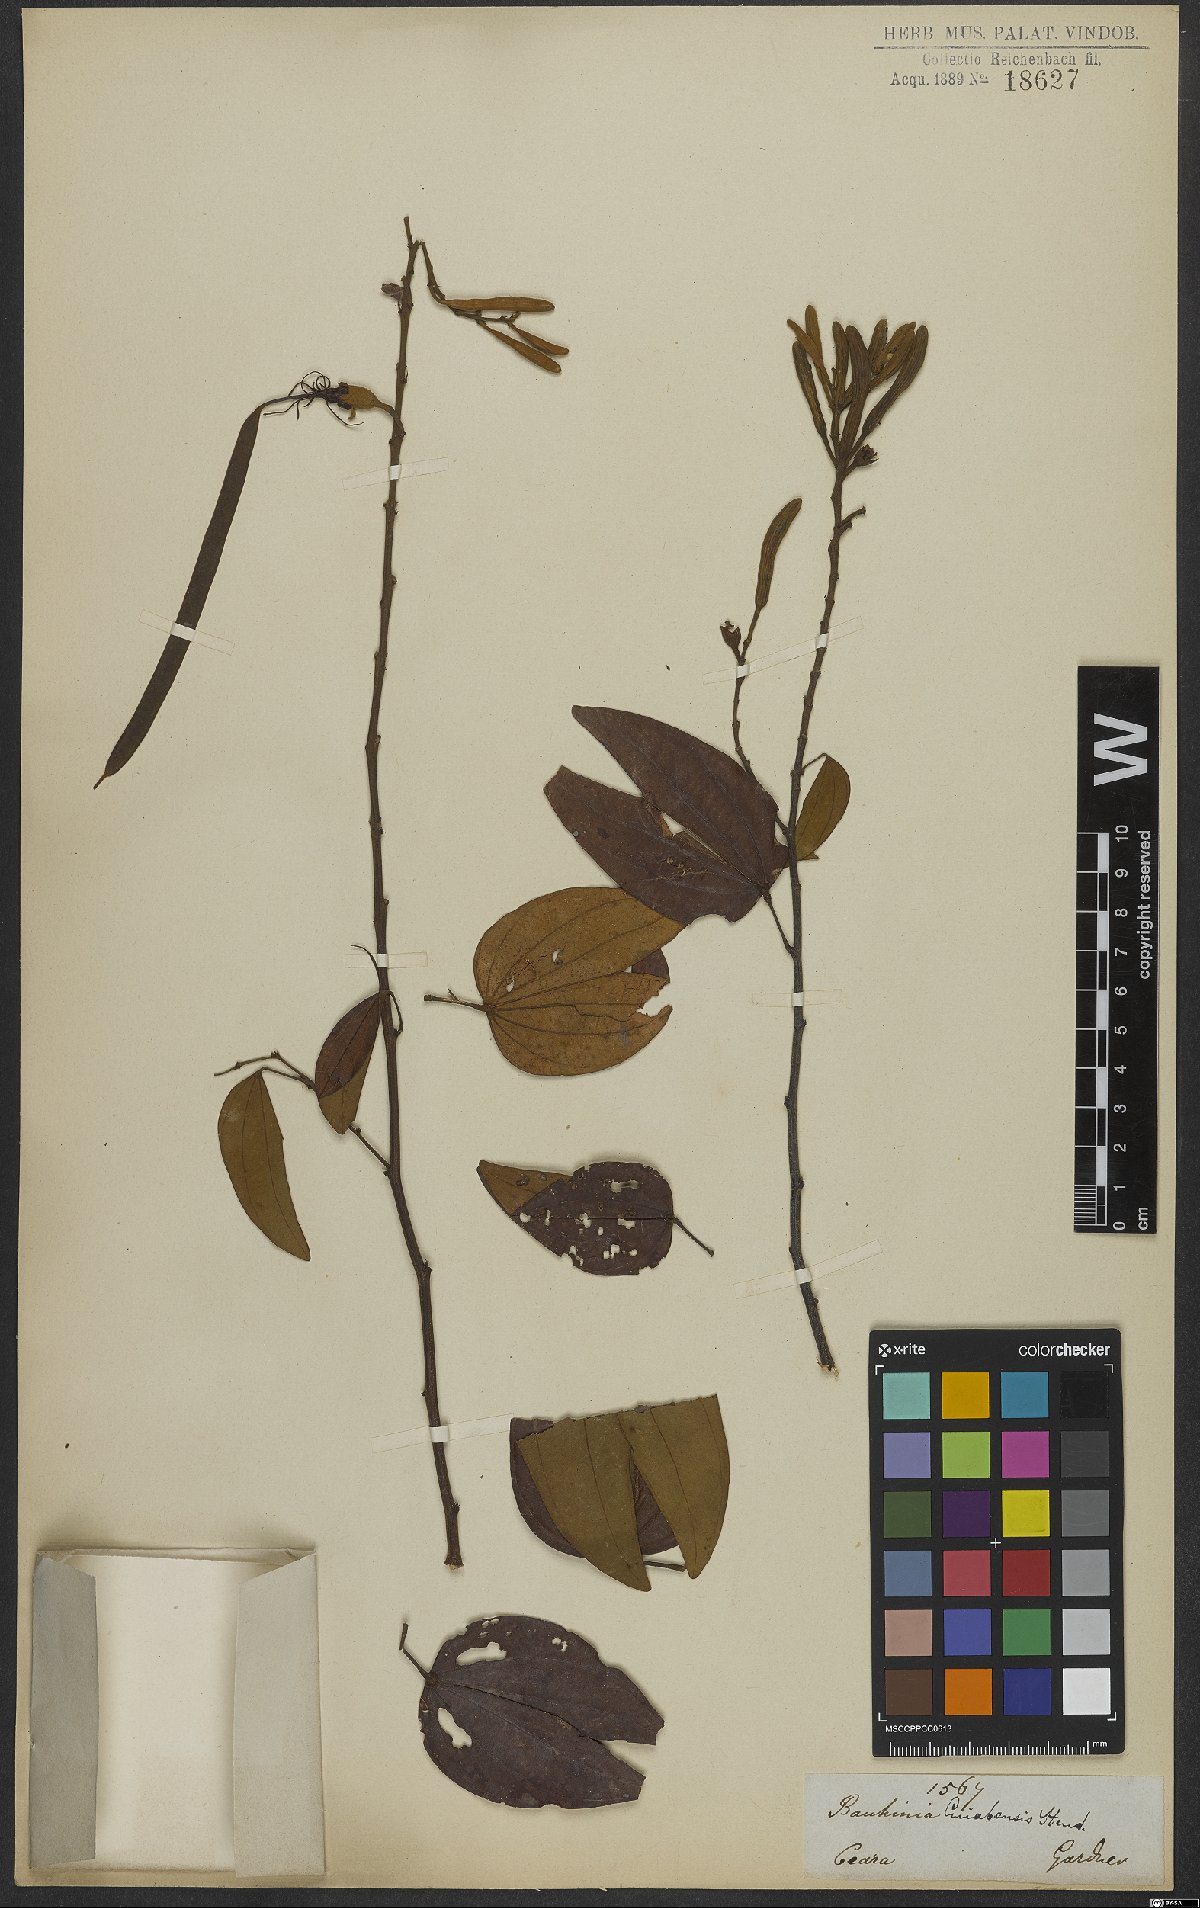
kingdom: Plantae
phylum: Tracheophyta
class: Magnoliopsida
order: Fabales
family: Fabaceae
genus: Bauhinia
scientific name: Bauhinia ungulata
